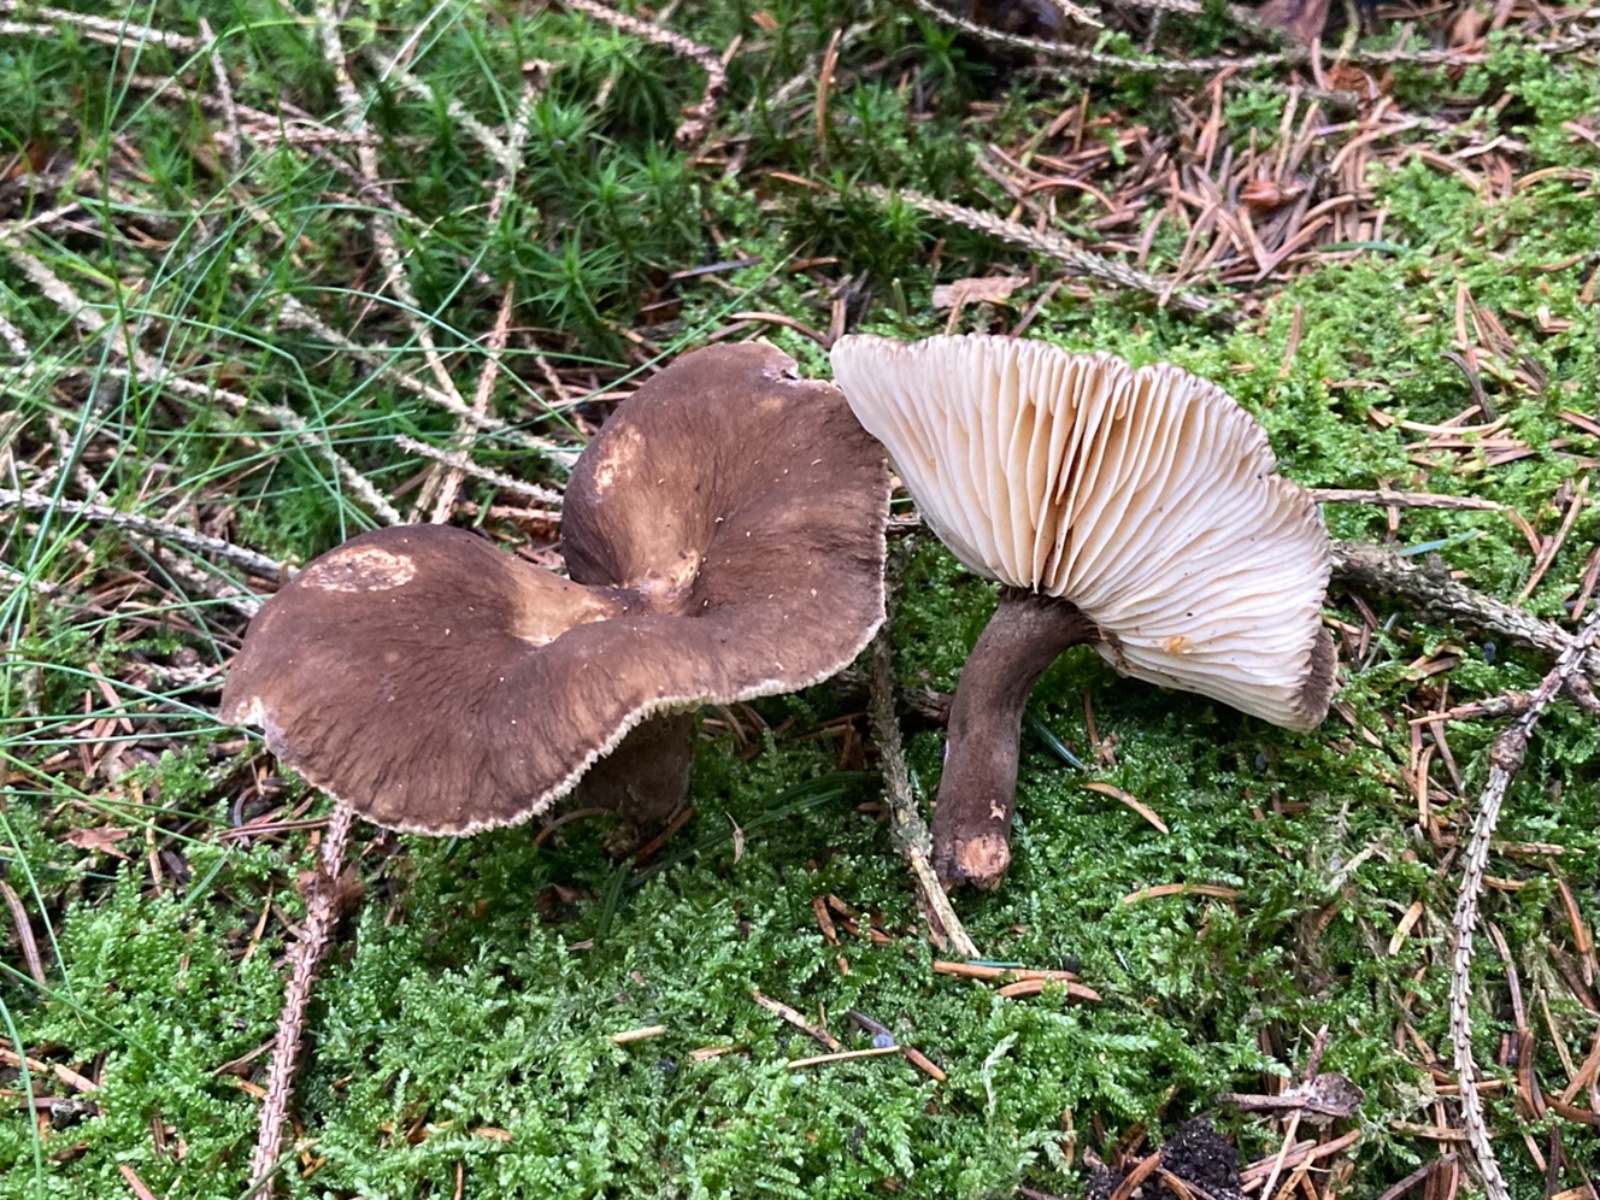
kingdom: Fungi
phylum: Basidiomycota
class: Agaricomycetes
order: Russulales
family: Russulaceae
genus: Lactarius
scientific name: Lactarius lignyotus
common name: fløjls-mælkehat
